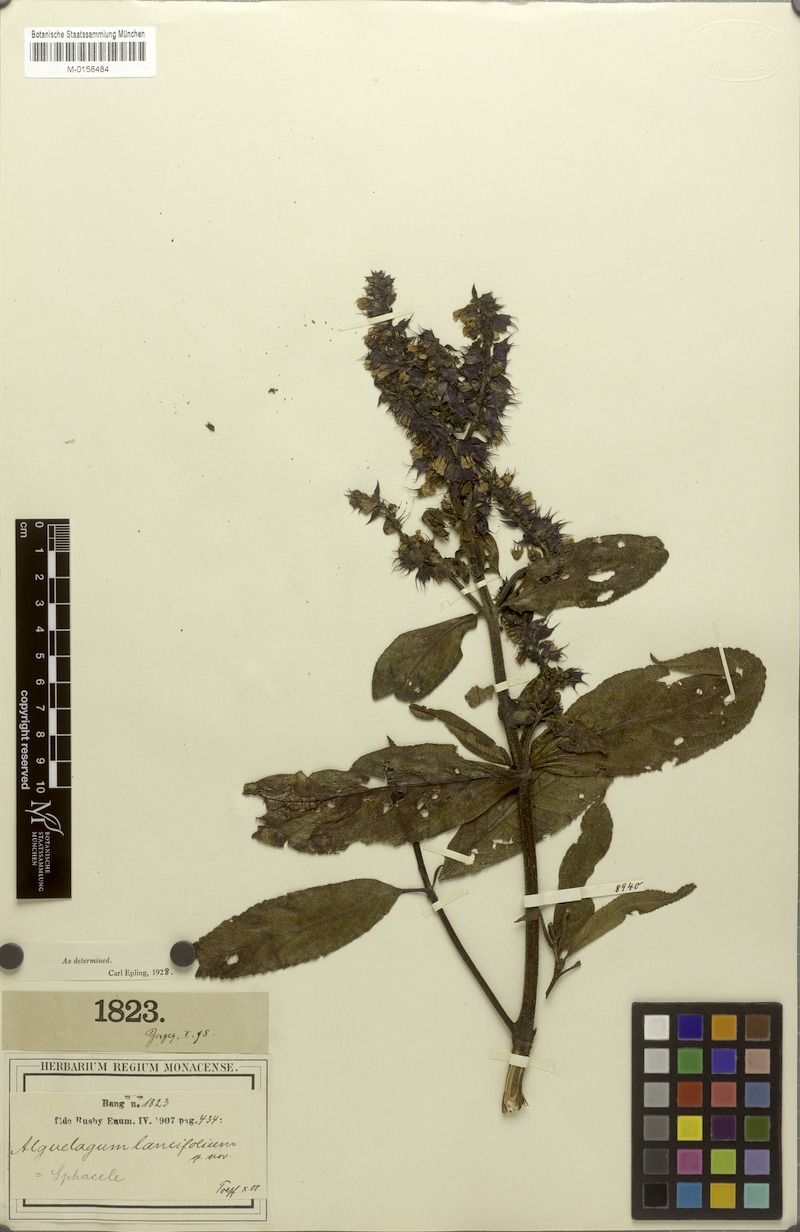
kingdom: Plantae
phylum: Tracheophyta
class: Magnoliopsida
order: Lamiales
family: Lamiaceae
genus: Lepechinia
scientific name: Lepechinia lancifolia
